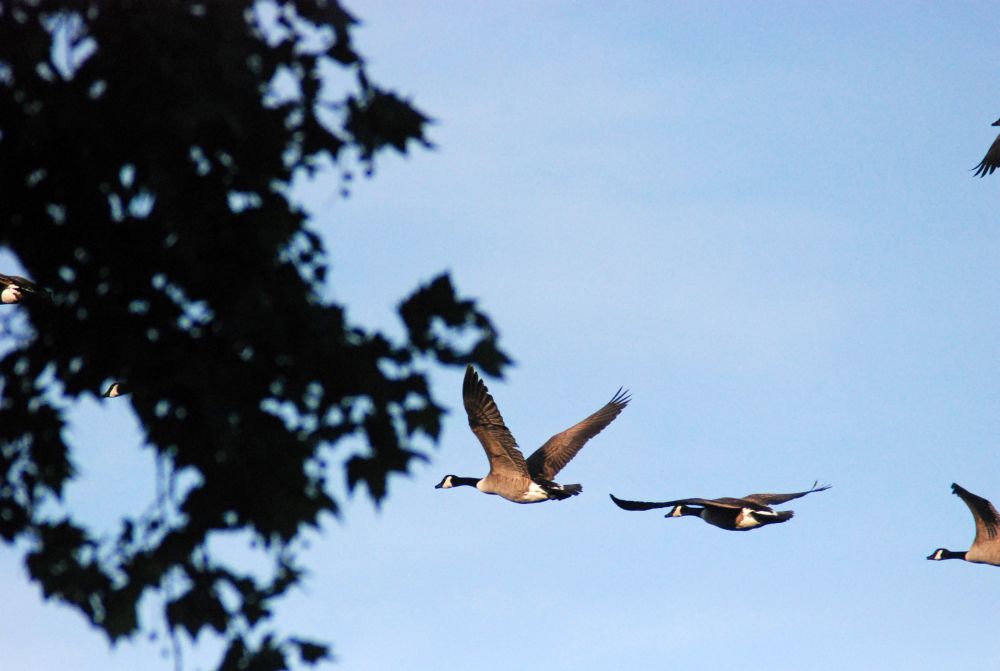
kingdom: Animalia
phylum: Chordata
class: Aves
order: Anseriformes
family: Anatidae
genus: Branta
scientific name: Branta canadensis
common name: Canada goose
